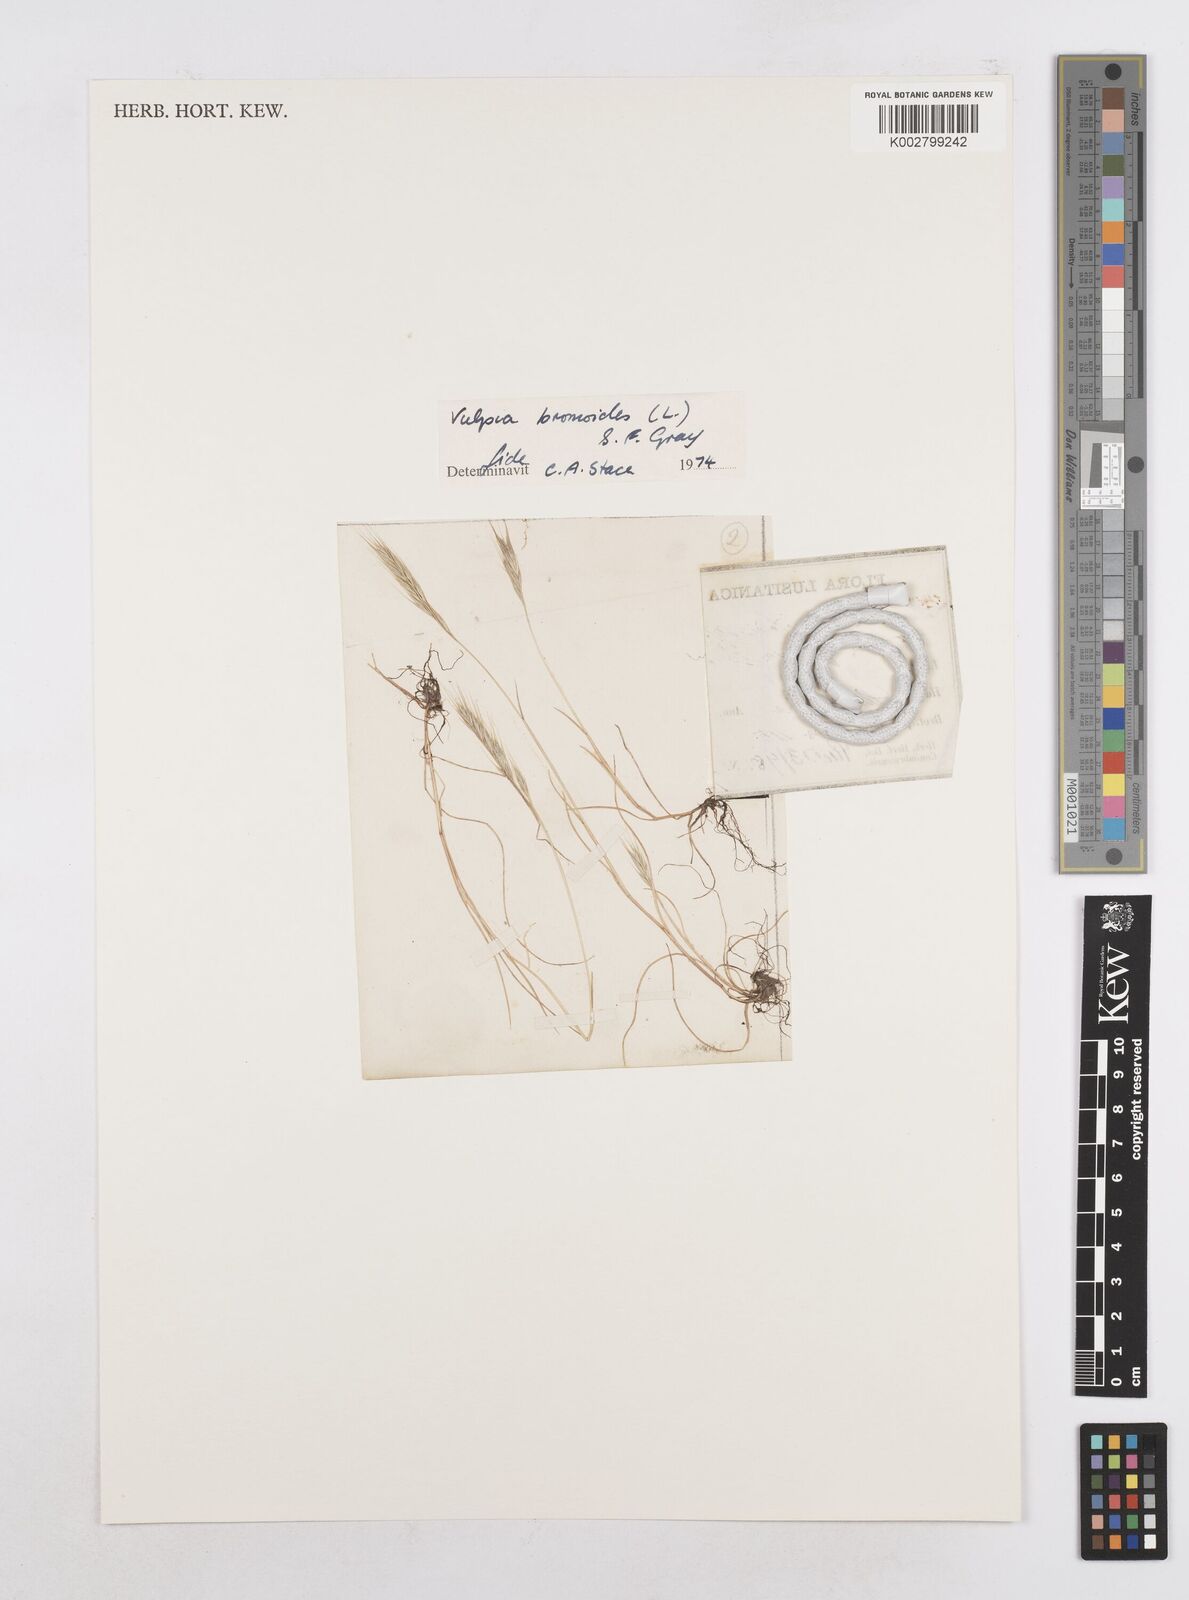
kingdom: Plantae
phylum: Tracheophyta
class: Liliopsida
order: Poales
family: Poaceae
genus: Festuca
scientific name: Festuca bromoides
